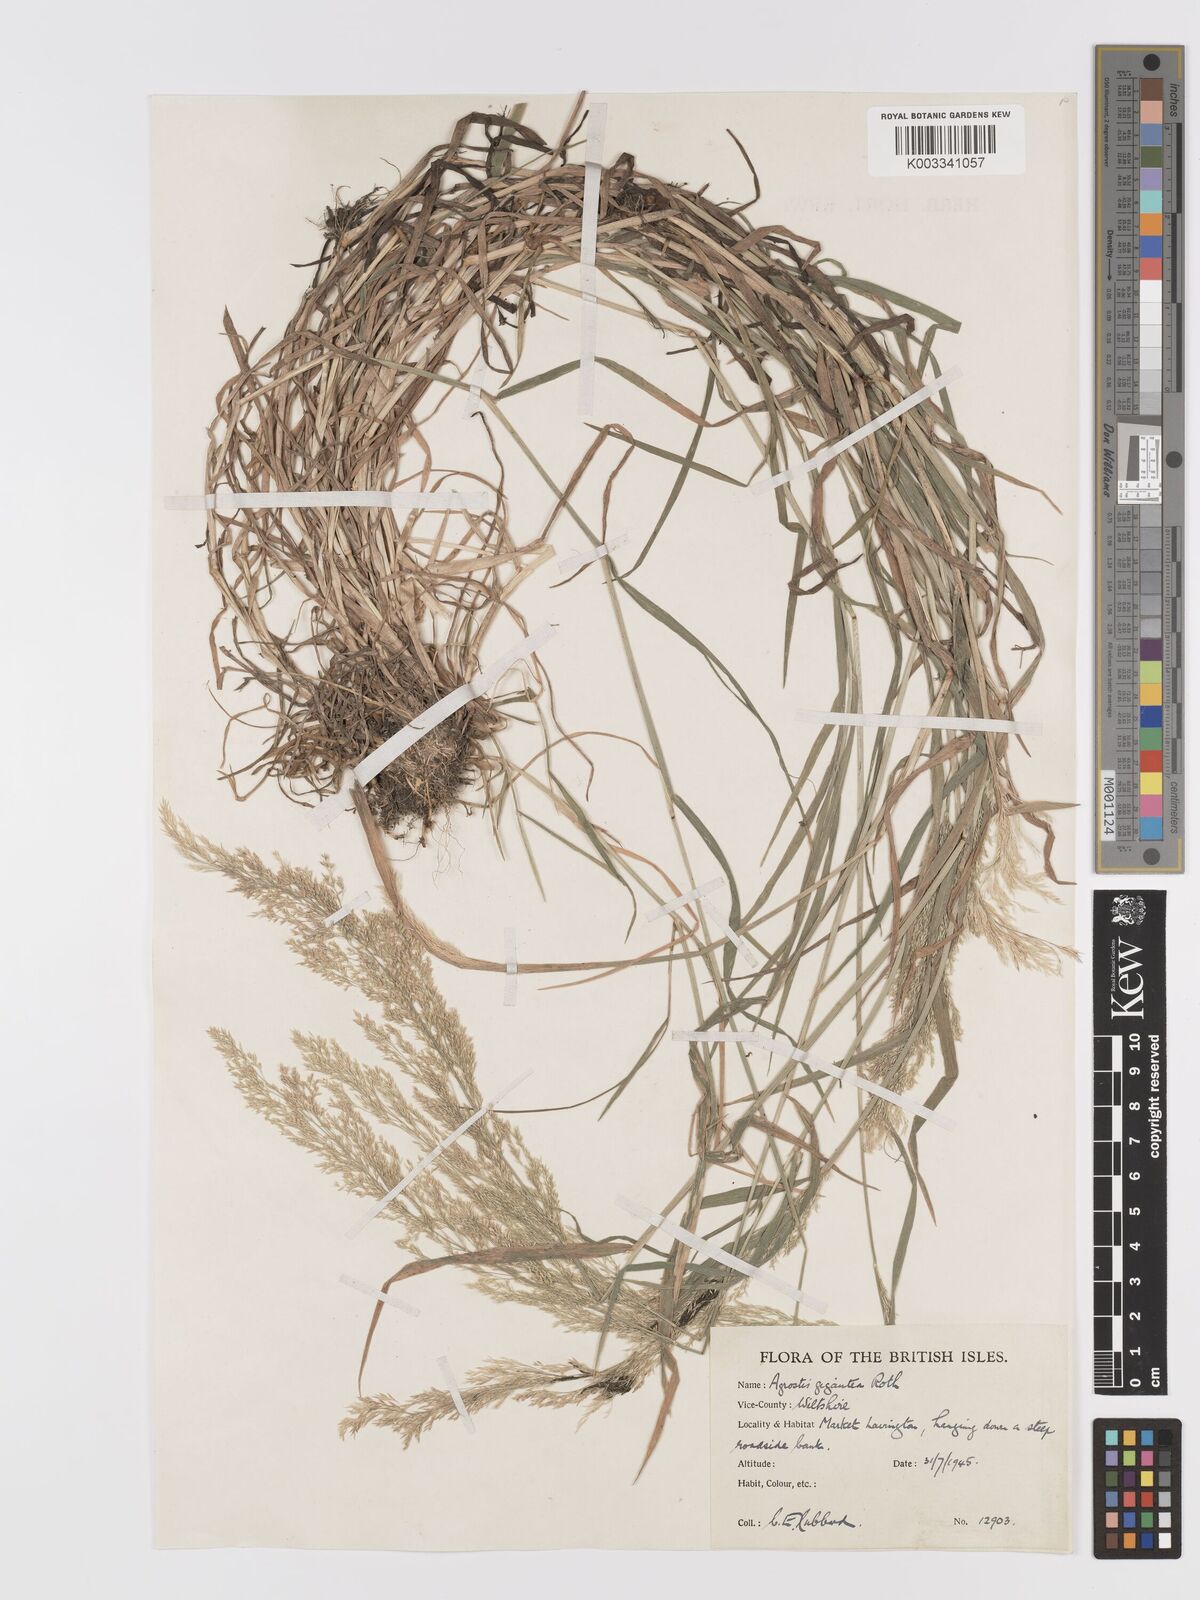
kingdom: Plantae
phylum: Tracheophyta
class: Liliopsida
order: Poales
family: Poaceae
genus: Agrostis
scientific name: Agrostis gigantea
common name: Black bent
